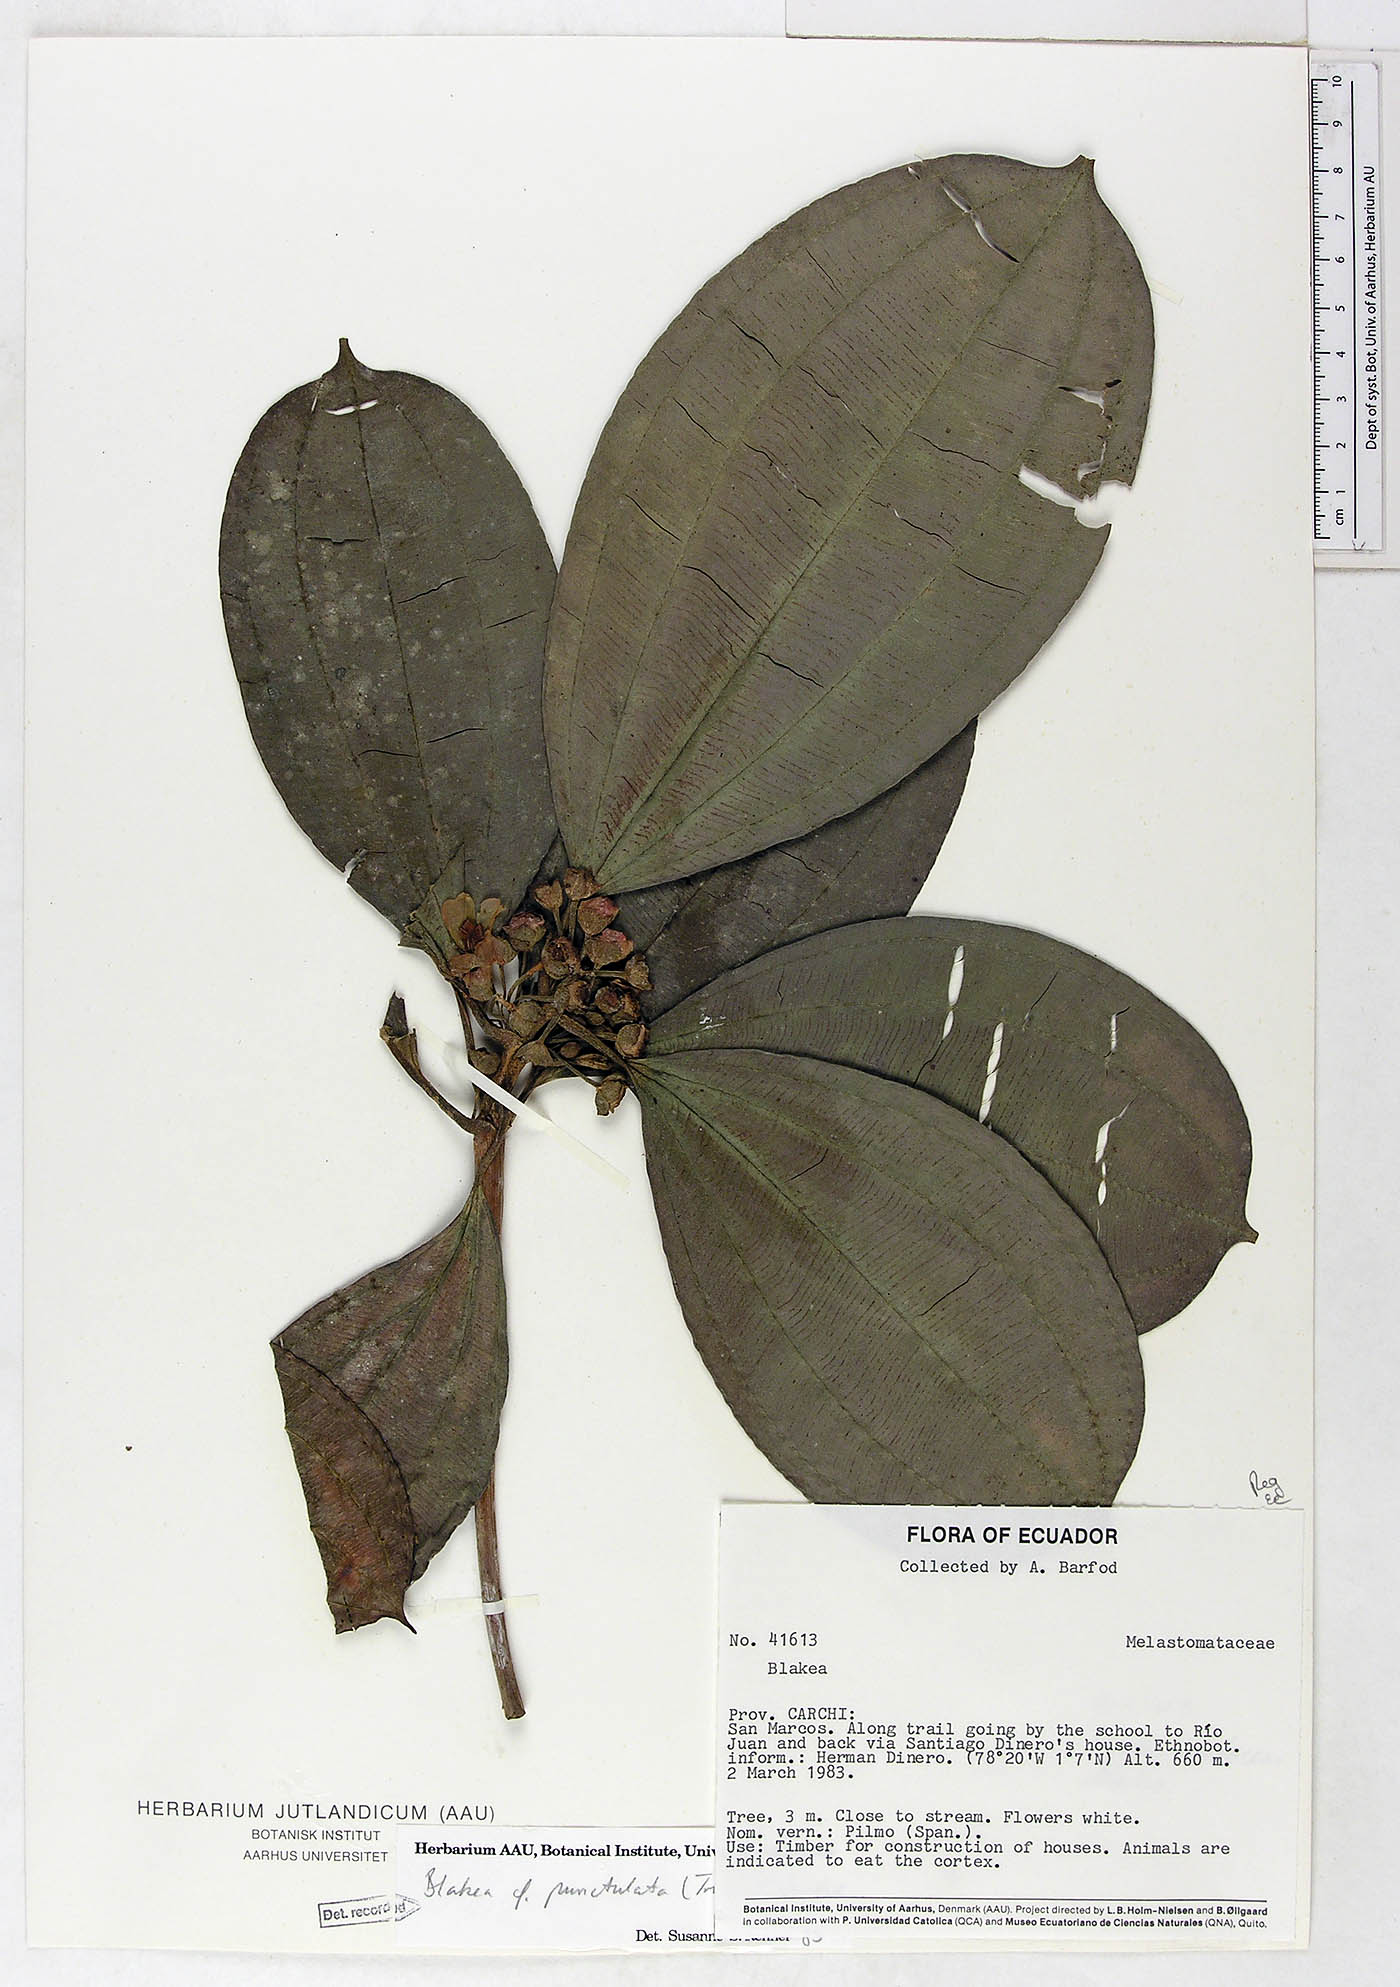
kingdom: Plantae
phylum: Tracheophyta
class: Magnoliopsida
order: Myrtales
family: Melastomataceae
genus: Blakea
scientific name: Blakea punctulata
